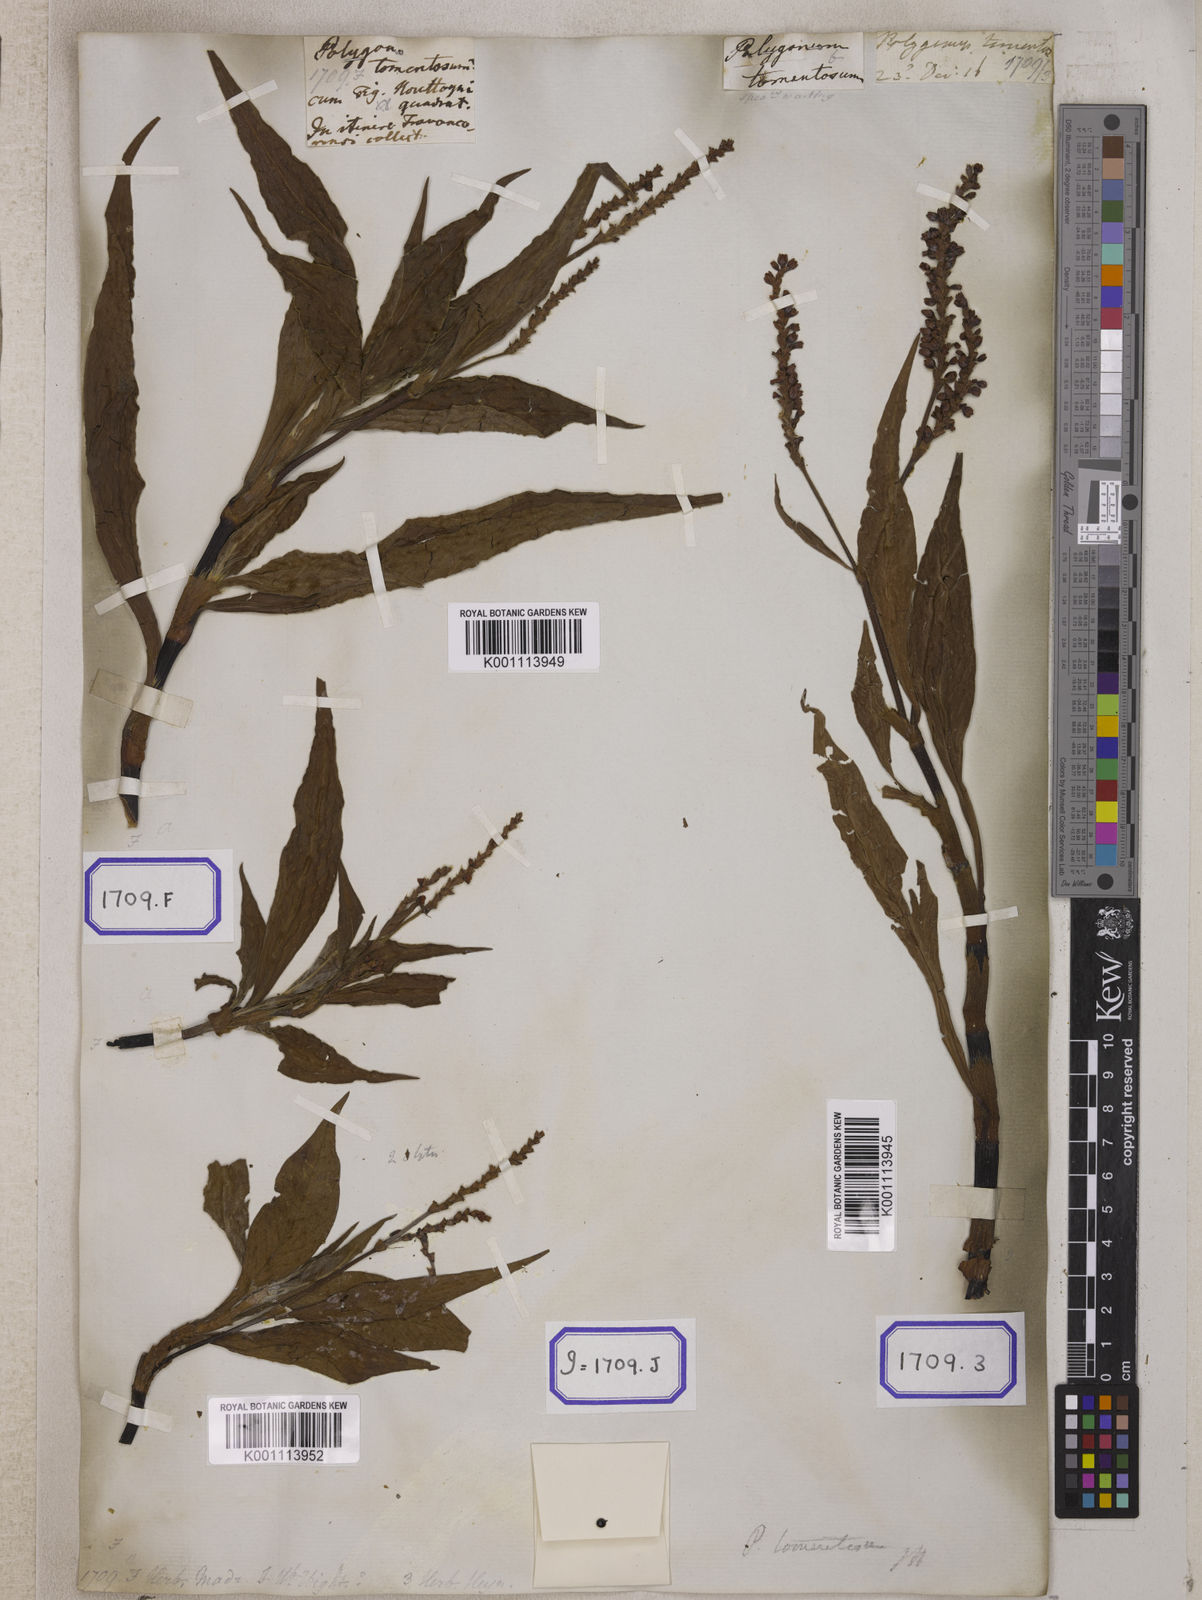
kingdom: Plantae
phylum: Tracheophyta
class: Magnoliopsida
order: Caryophyllales
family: Polygonaceae
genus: Persicaria
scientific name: Persicaria madagascariensis
